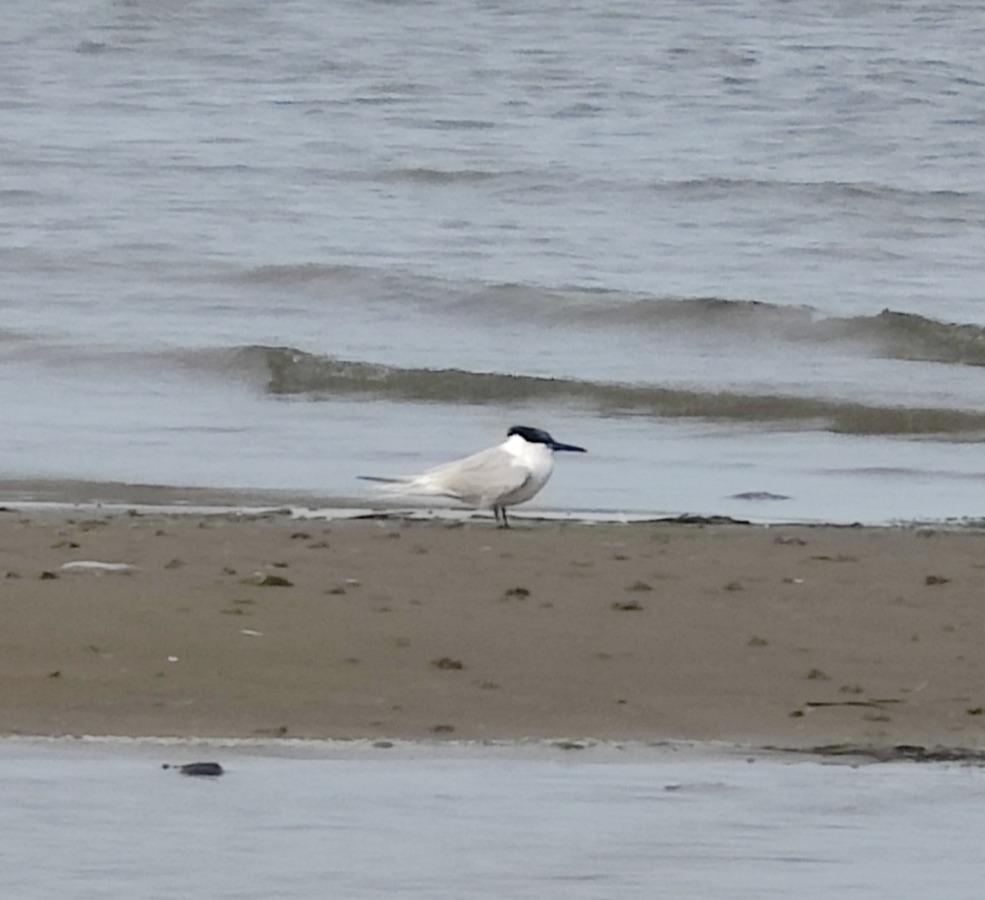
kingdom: Animalia
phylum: Chordata
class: Aves
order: Charadriiformes
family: Laridae
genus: Thalasseus
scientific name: Thalasseus sandvicensis
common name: Splitterne
